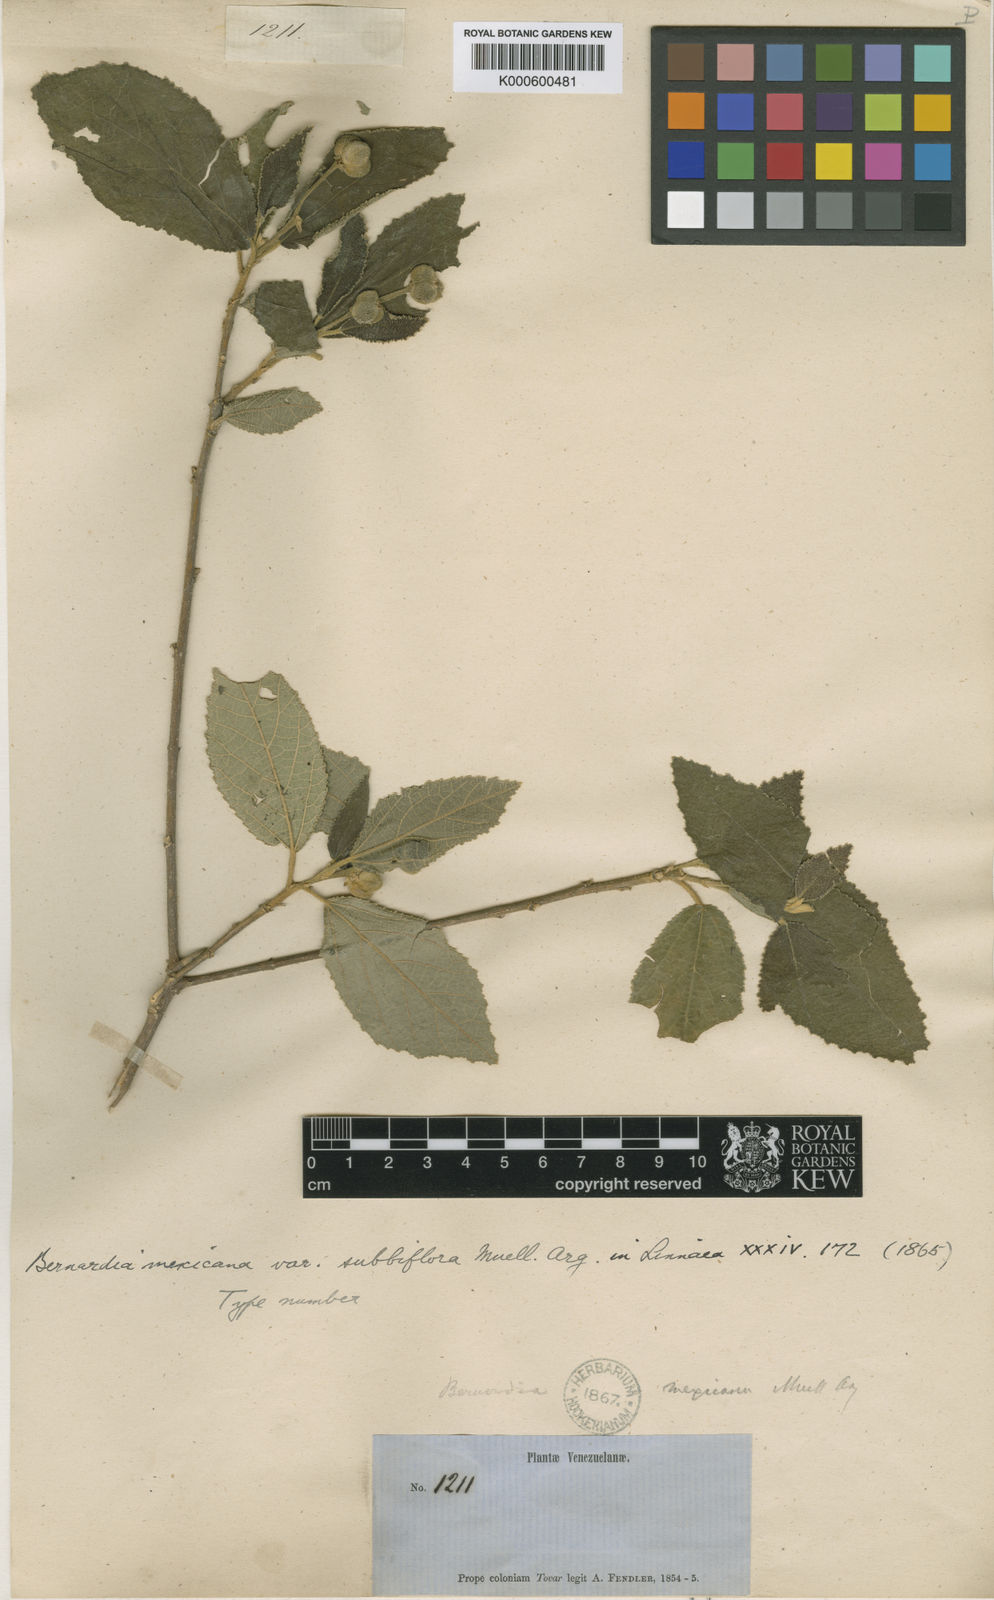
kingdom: Plantae
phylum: Tracheophyta
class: Magnoliopsida
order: Malpighiales
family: Euphorbiaceae
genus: Bernardia
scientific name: Bernardia
